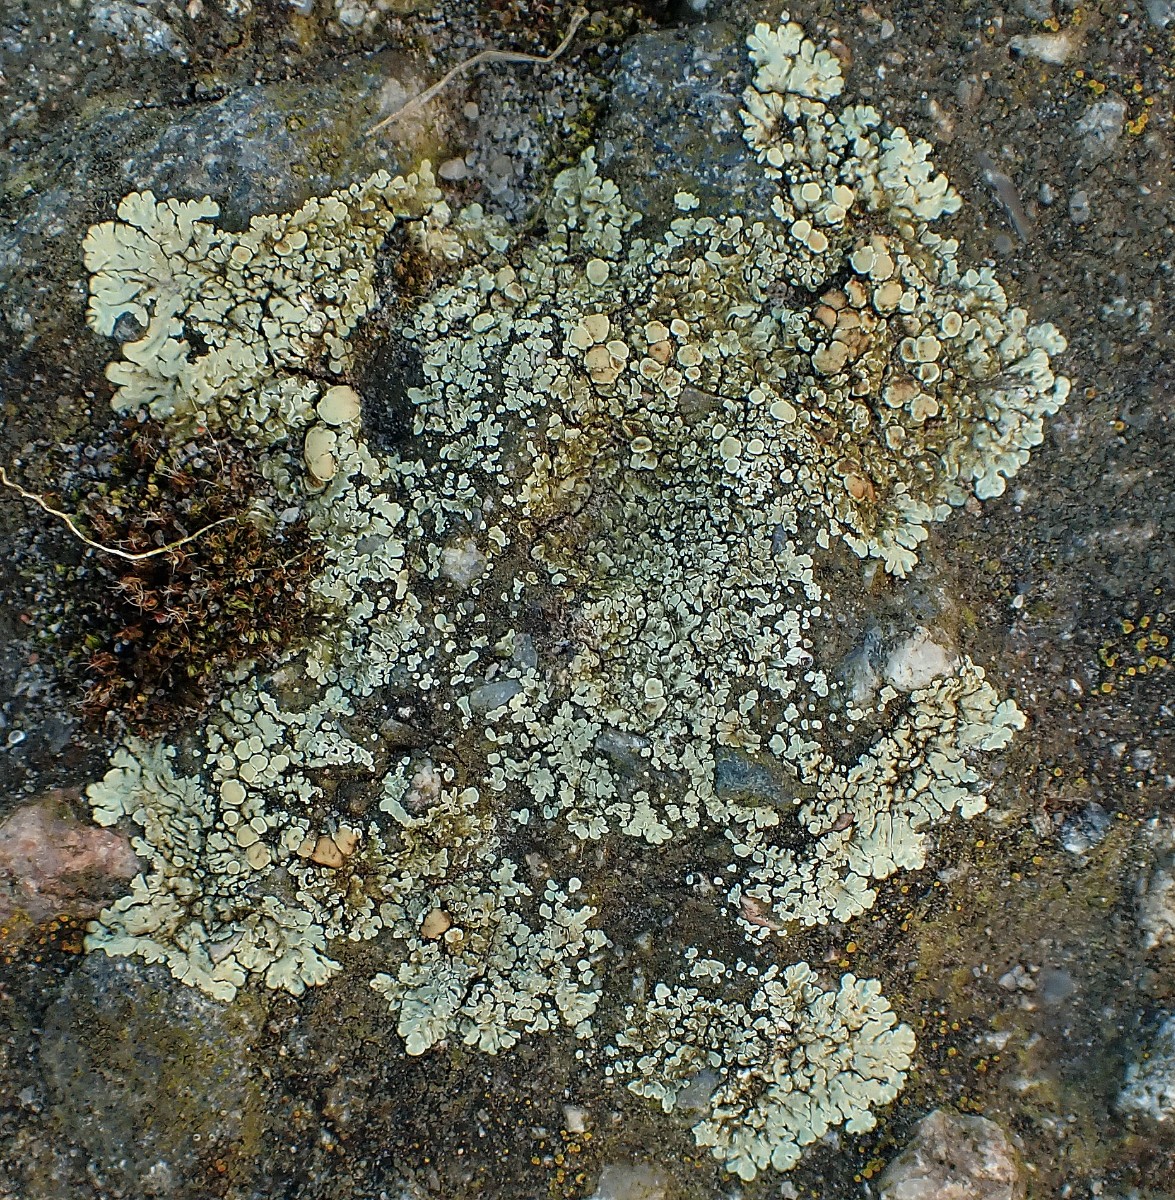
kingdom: Fungi
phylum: Ascomycota
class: Lecanoromycetes
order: Lecanorales
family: Lecanoraceae
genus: Protoparmeliopsis
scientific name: Protoparmeliopsis muralis
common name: randfliget kantskivelav
